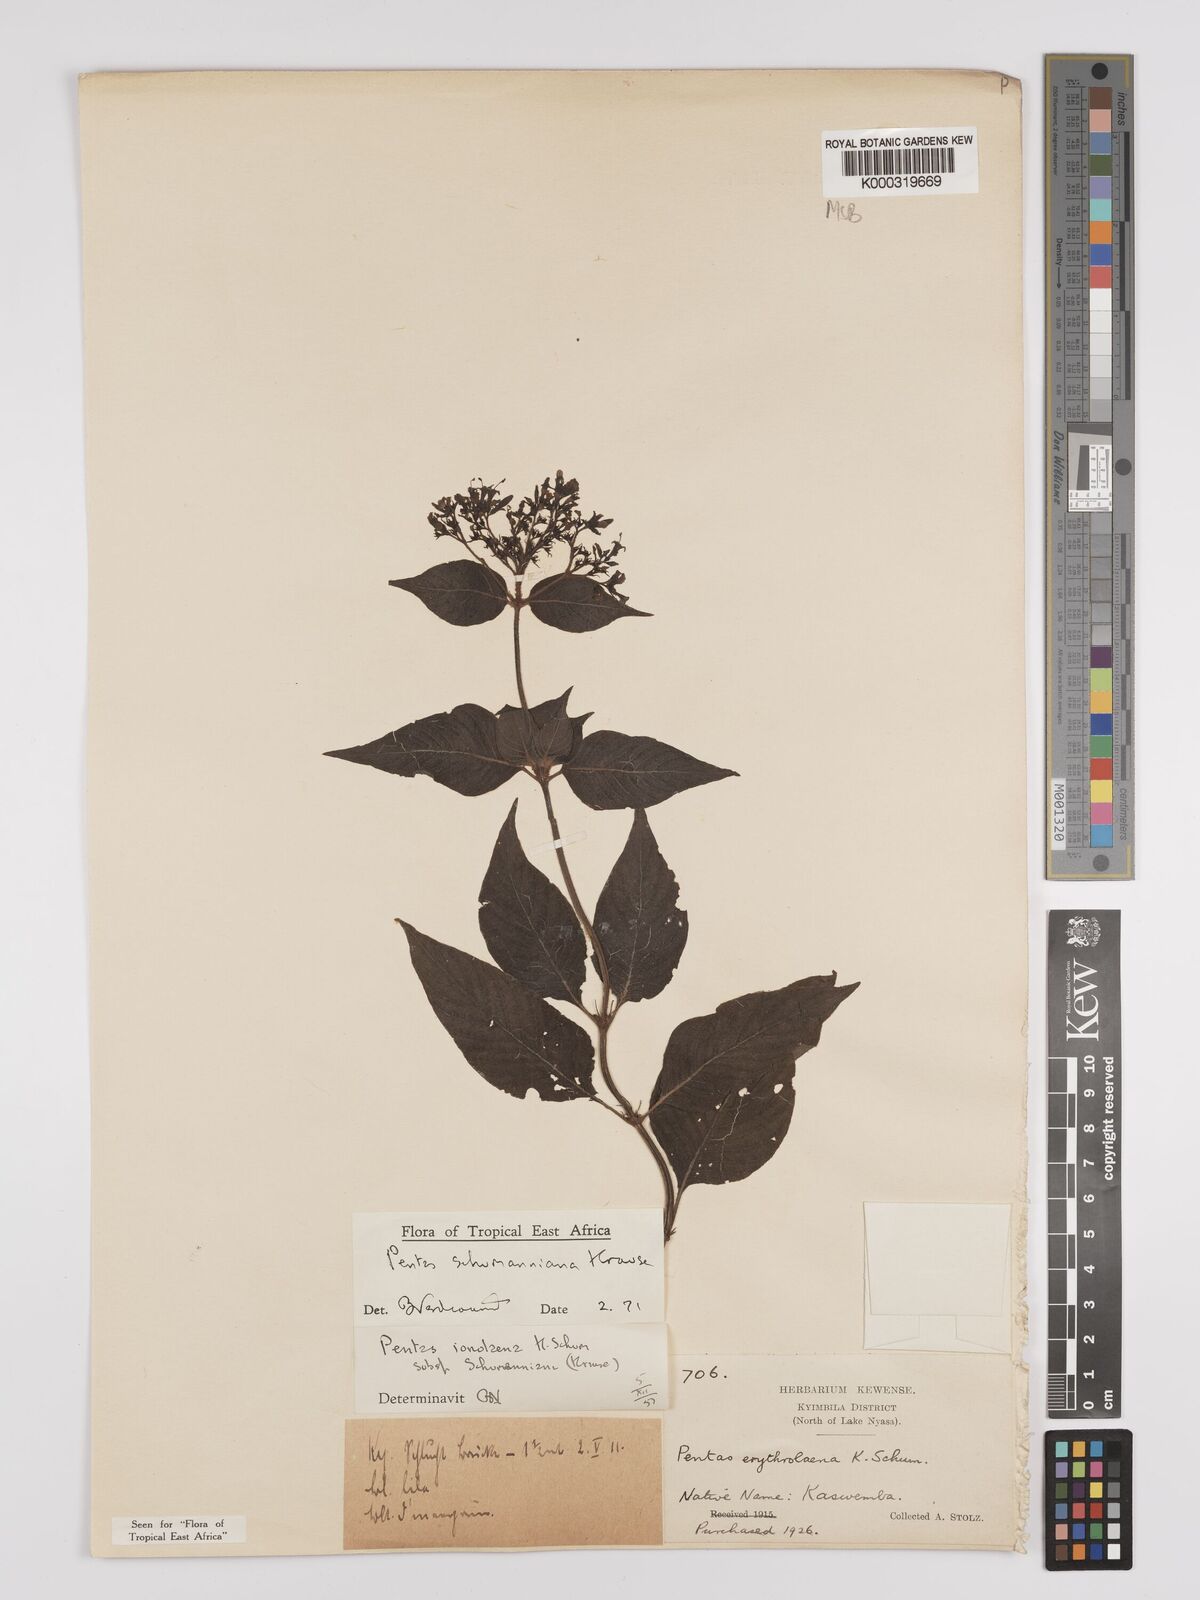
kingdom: Plantae
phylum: Tracheophyta
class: Magnoliopsida
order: Gentianales
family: Rubiaceae
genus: Phyllopentas
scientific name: Phyllopentas schumanniana
